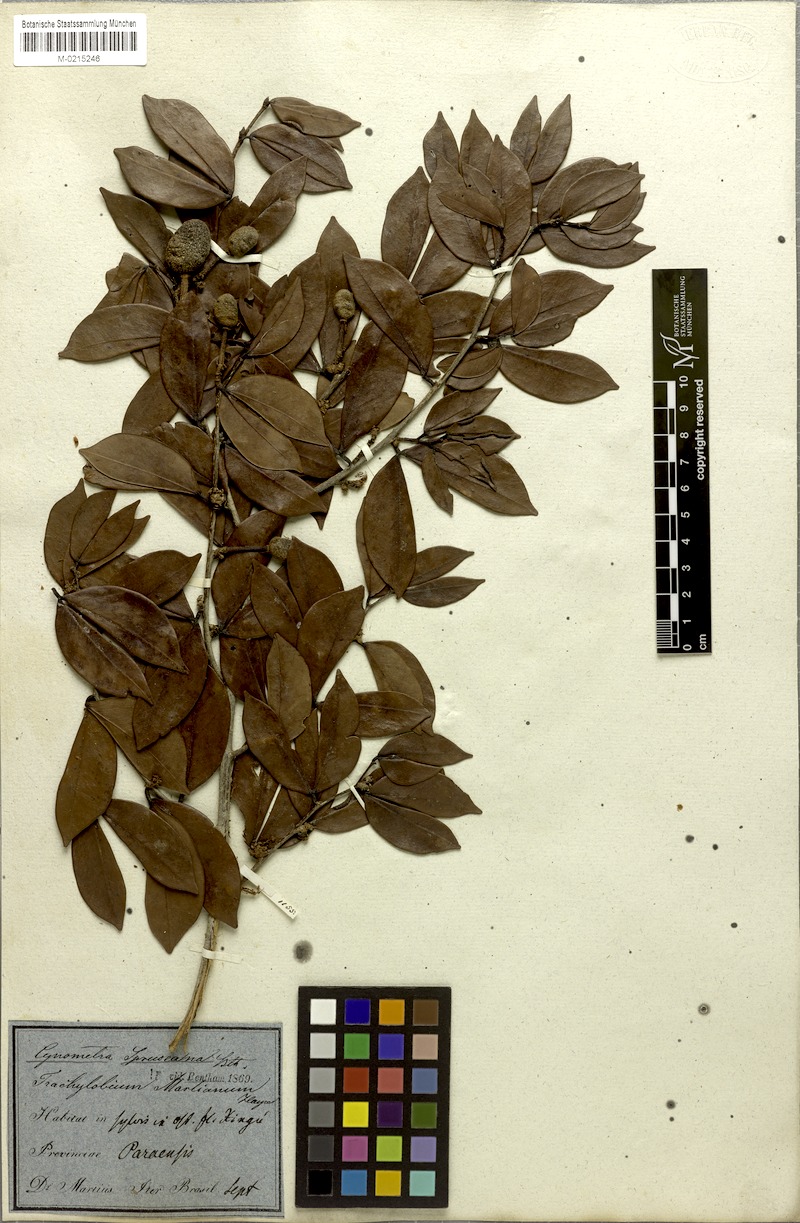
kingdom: Plantae
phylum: Tracheophyta
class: Magnoliopsida
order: Fabales
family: Fabaceae
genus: Hymenaea
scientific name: Hymenaea martiana
